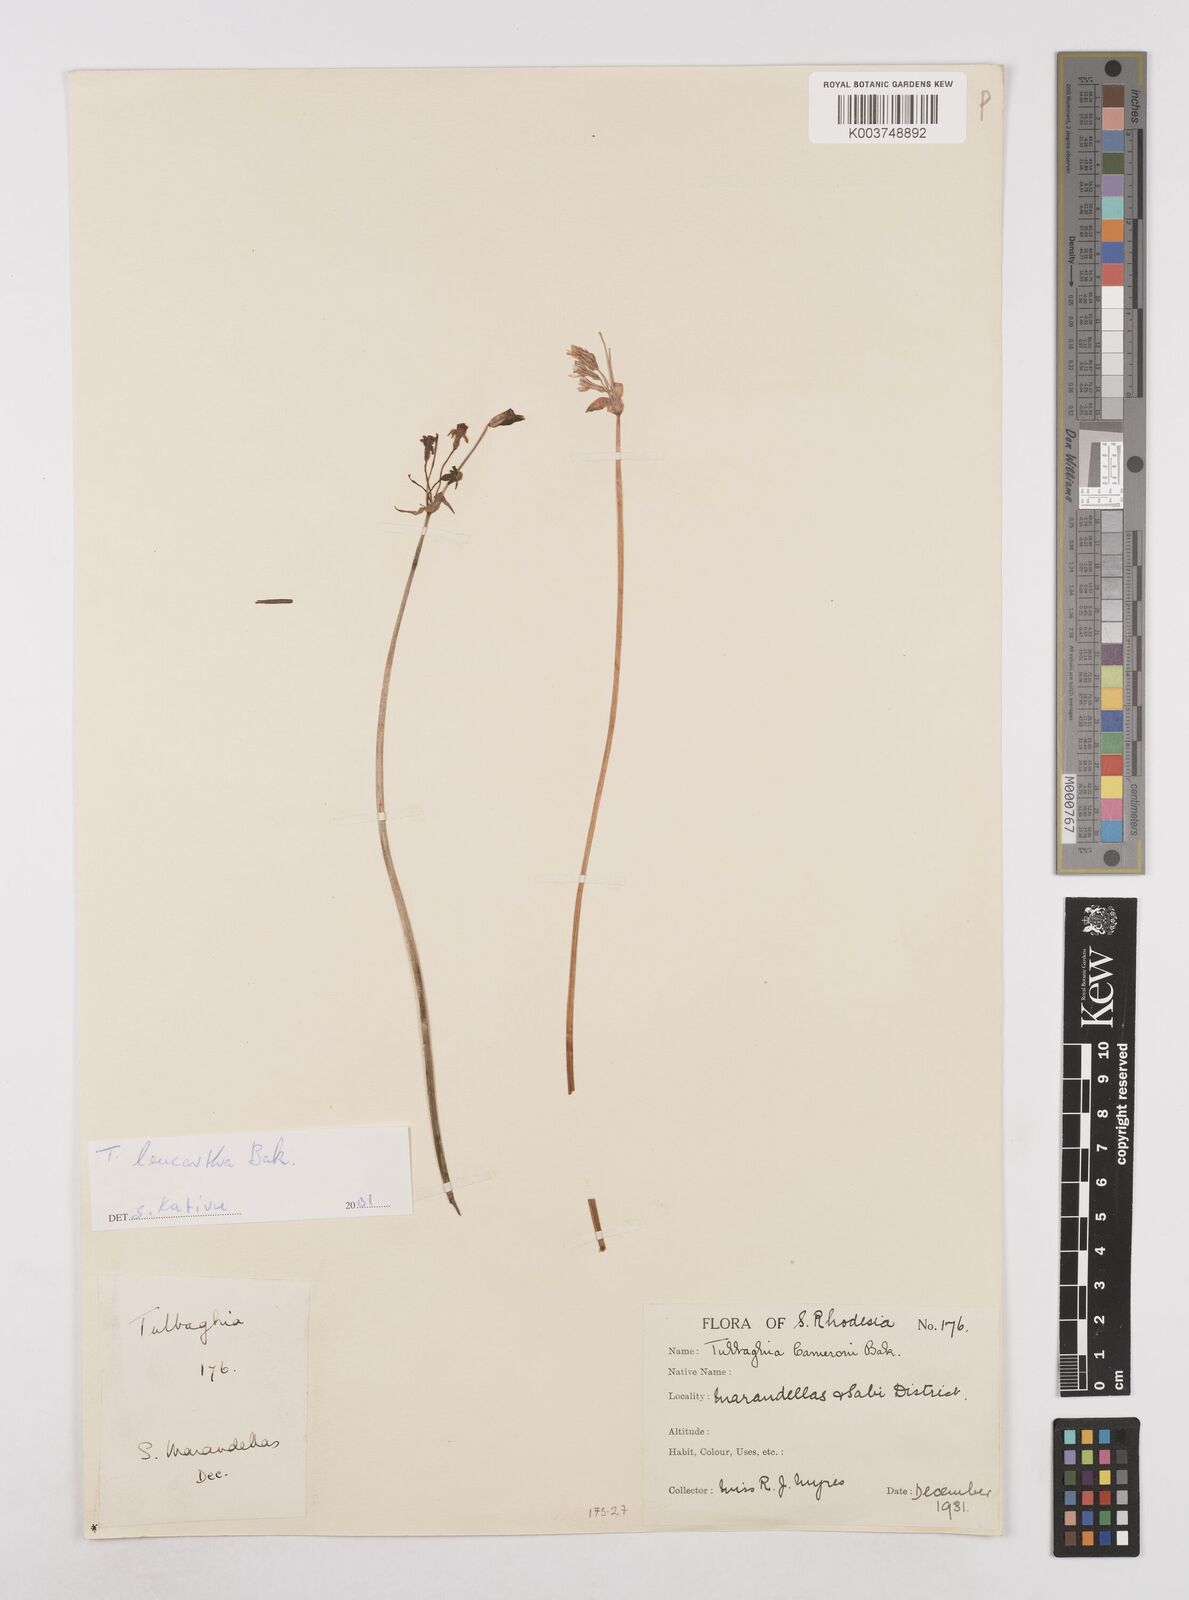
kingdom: Plantae
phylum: Tracheophyta
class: Liliopsida
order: Asparagales
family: Amaryllidaceae
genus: Tulbaghia
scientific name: Tulbaghia leucantha
